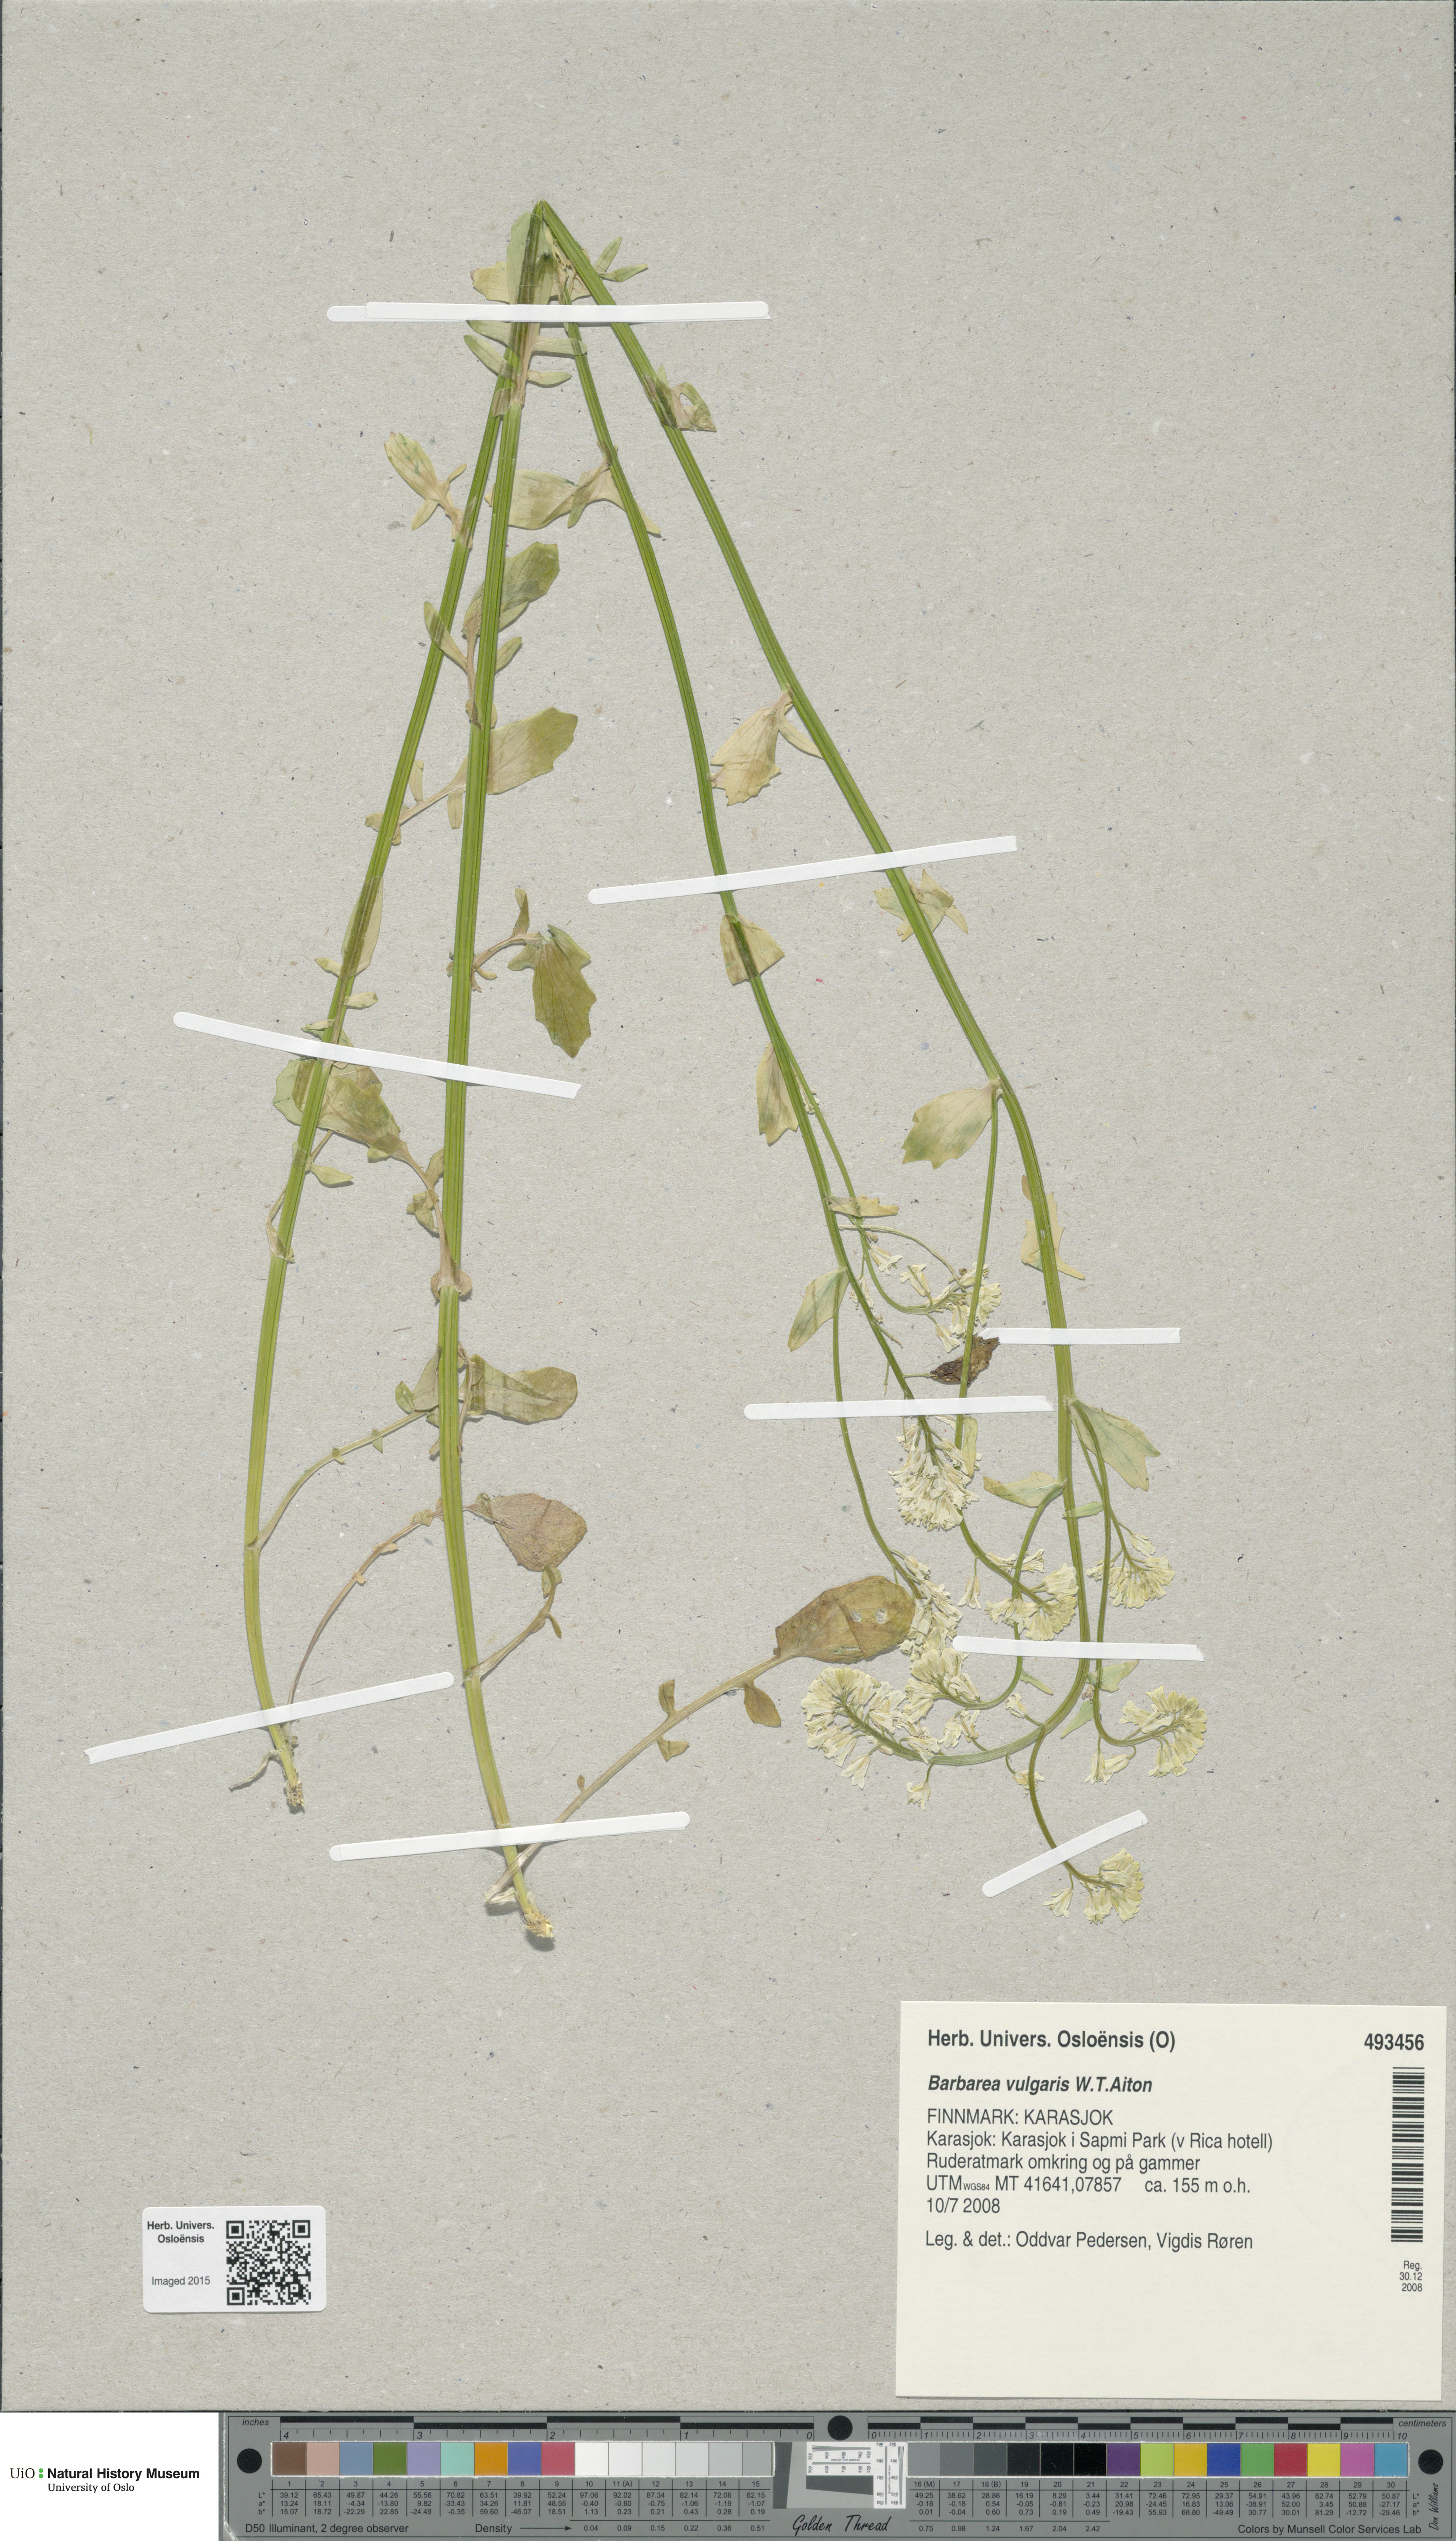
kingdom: Plantae
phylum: Tracheophyta
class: Magnoliopsida
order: Brassicales
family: Brassicaceae
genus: Barbarea
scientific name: Barbarea vulgaris
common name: Cressy-greens
